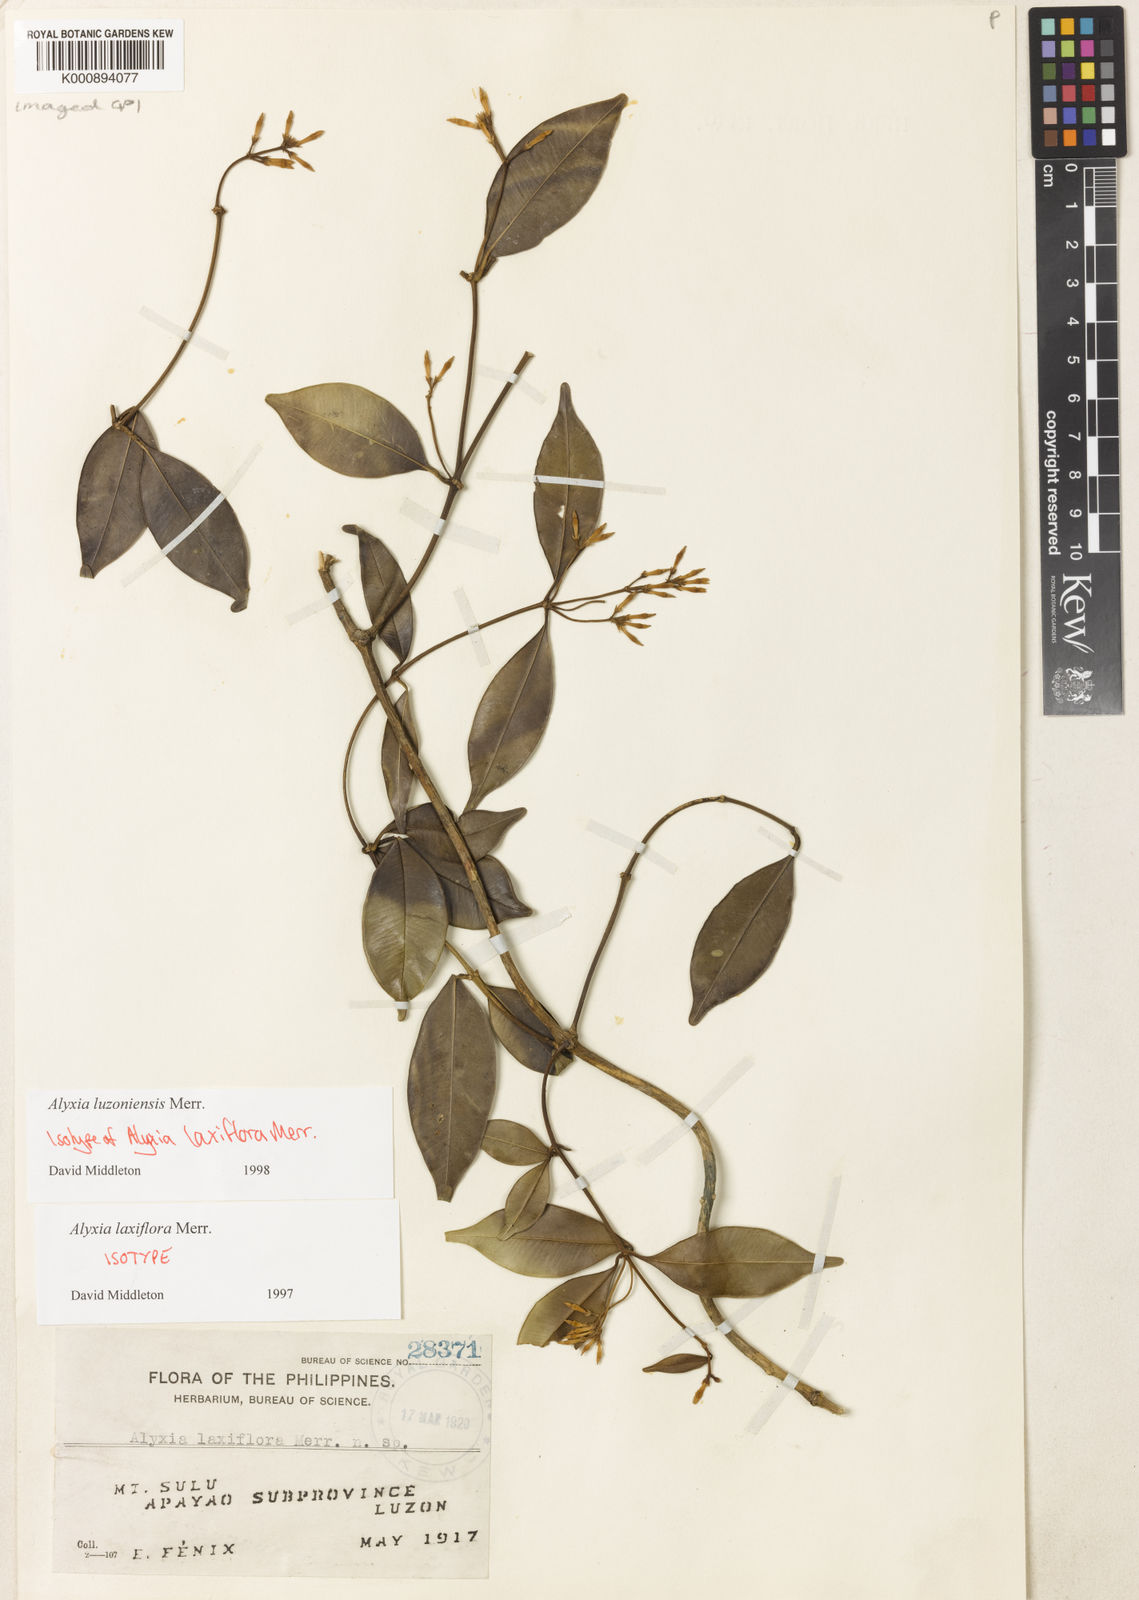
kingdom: Plantae
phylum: Tracheophyta
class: Magnoliopsida
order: Gentianales
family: Apocynaceae
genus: Alyxia
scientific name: Alyxia luzoniensis
